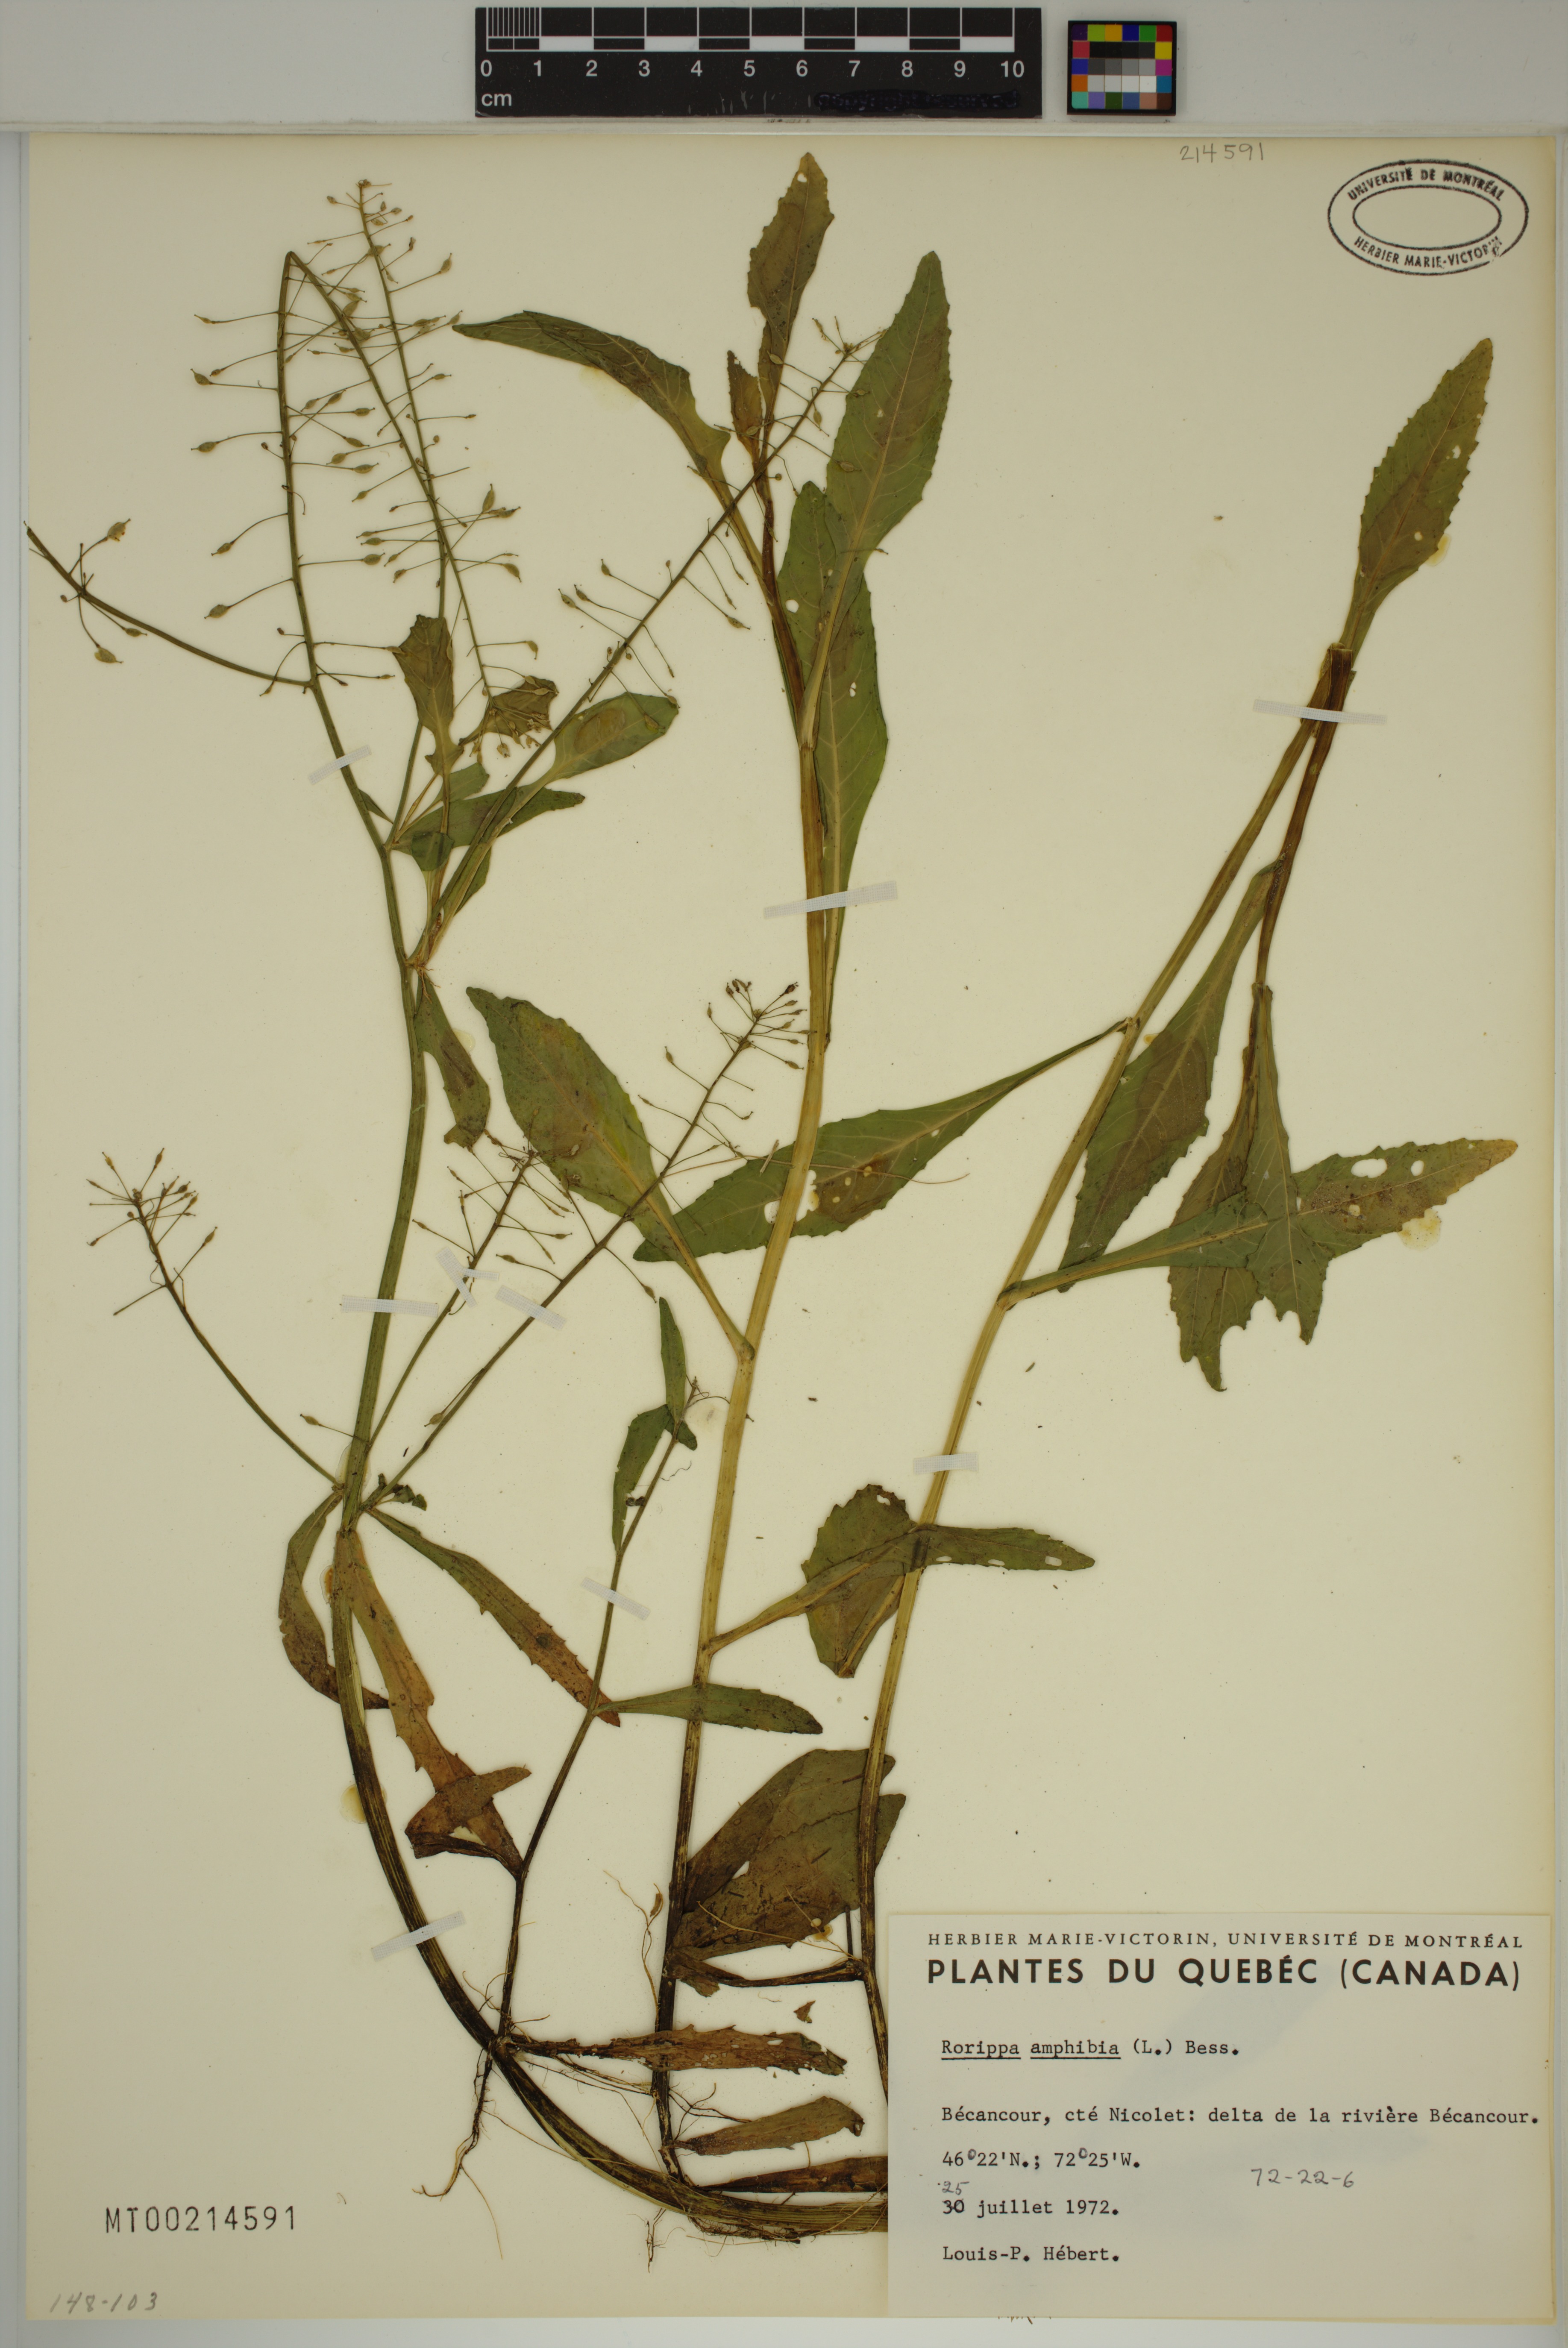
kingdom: Plantae
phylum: Tracheophyta
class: Magnoliopsida
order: Brassicales
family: Brassicaceae
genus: Rorippa
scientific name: Rorippa amphibia
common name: Great yellow-cress
